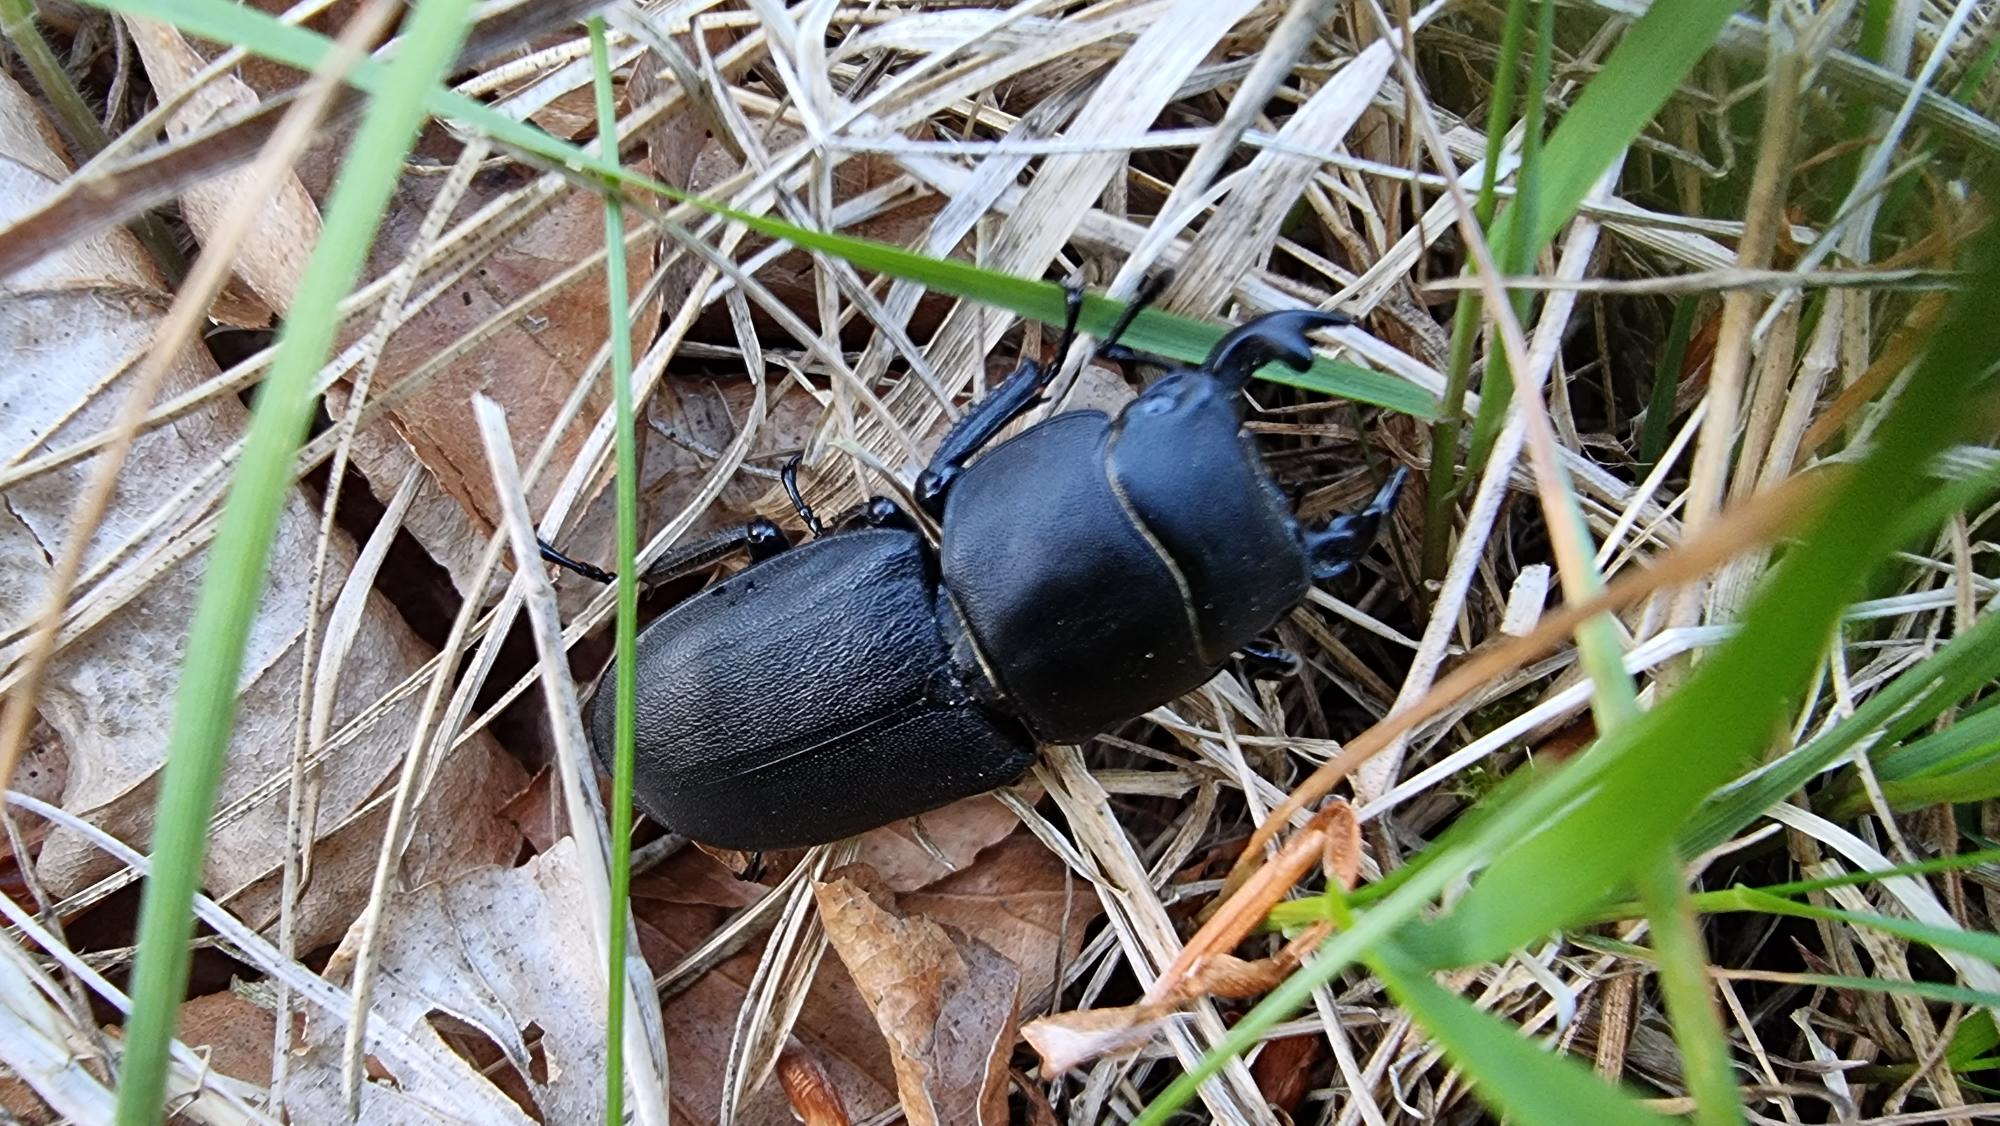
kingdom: Animalia
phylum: Arthropoda
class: Insecta
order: Coleoptera
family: Lucanidae
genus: Dorcus
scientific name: Dorcus parallelipipedus
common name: Bøghjort
